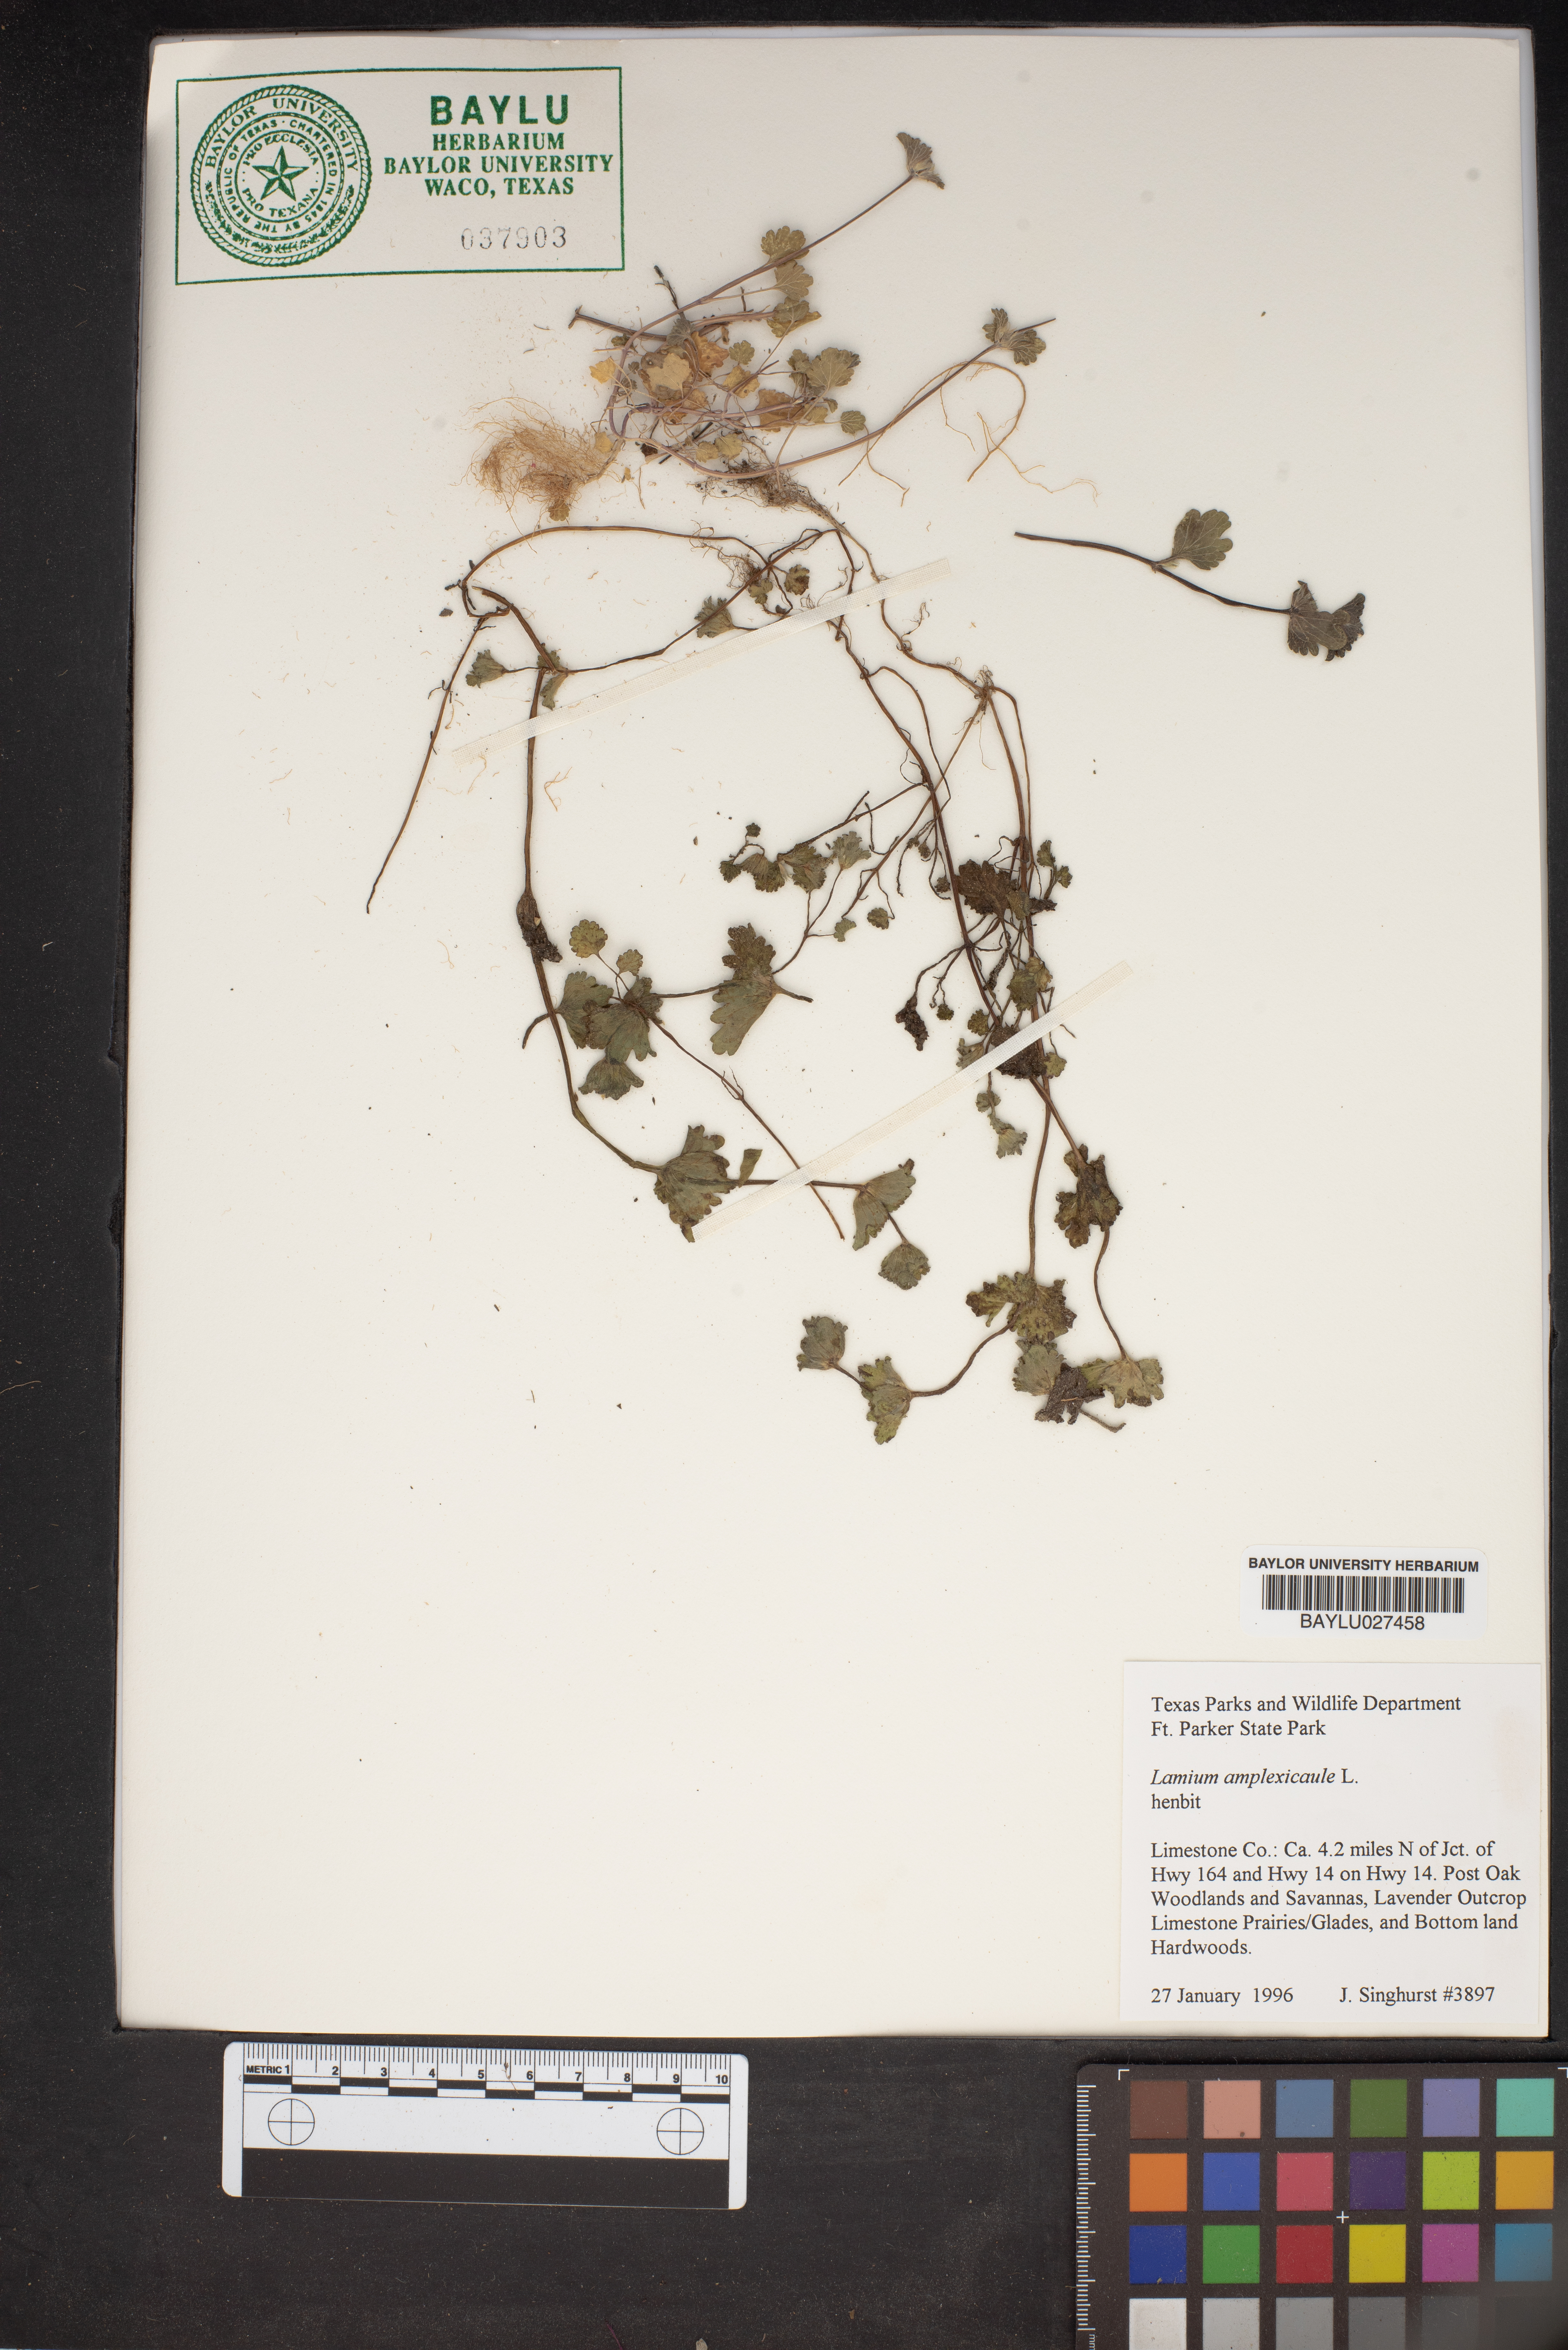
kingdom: Plantae
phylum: Tracheophyta
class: Magnoliopsida
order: Lamiales
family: Lamiaceae
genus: Lamium
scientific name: Lamium amplexicaule
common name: Henbit dead-nettle
